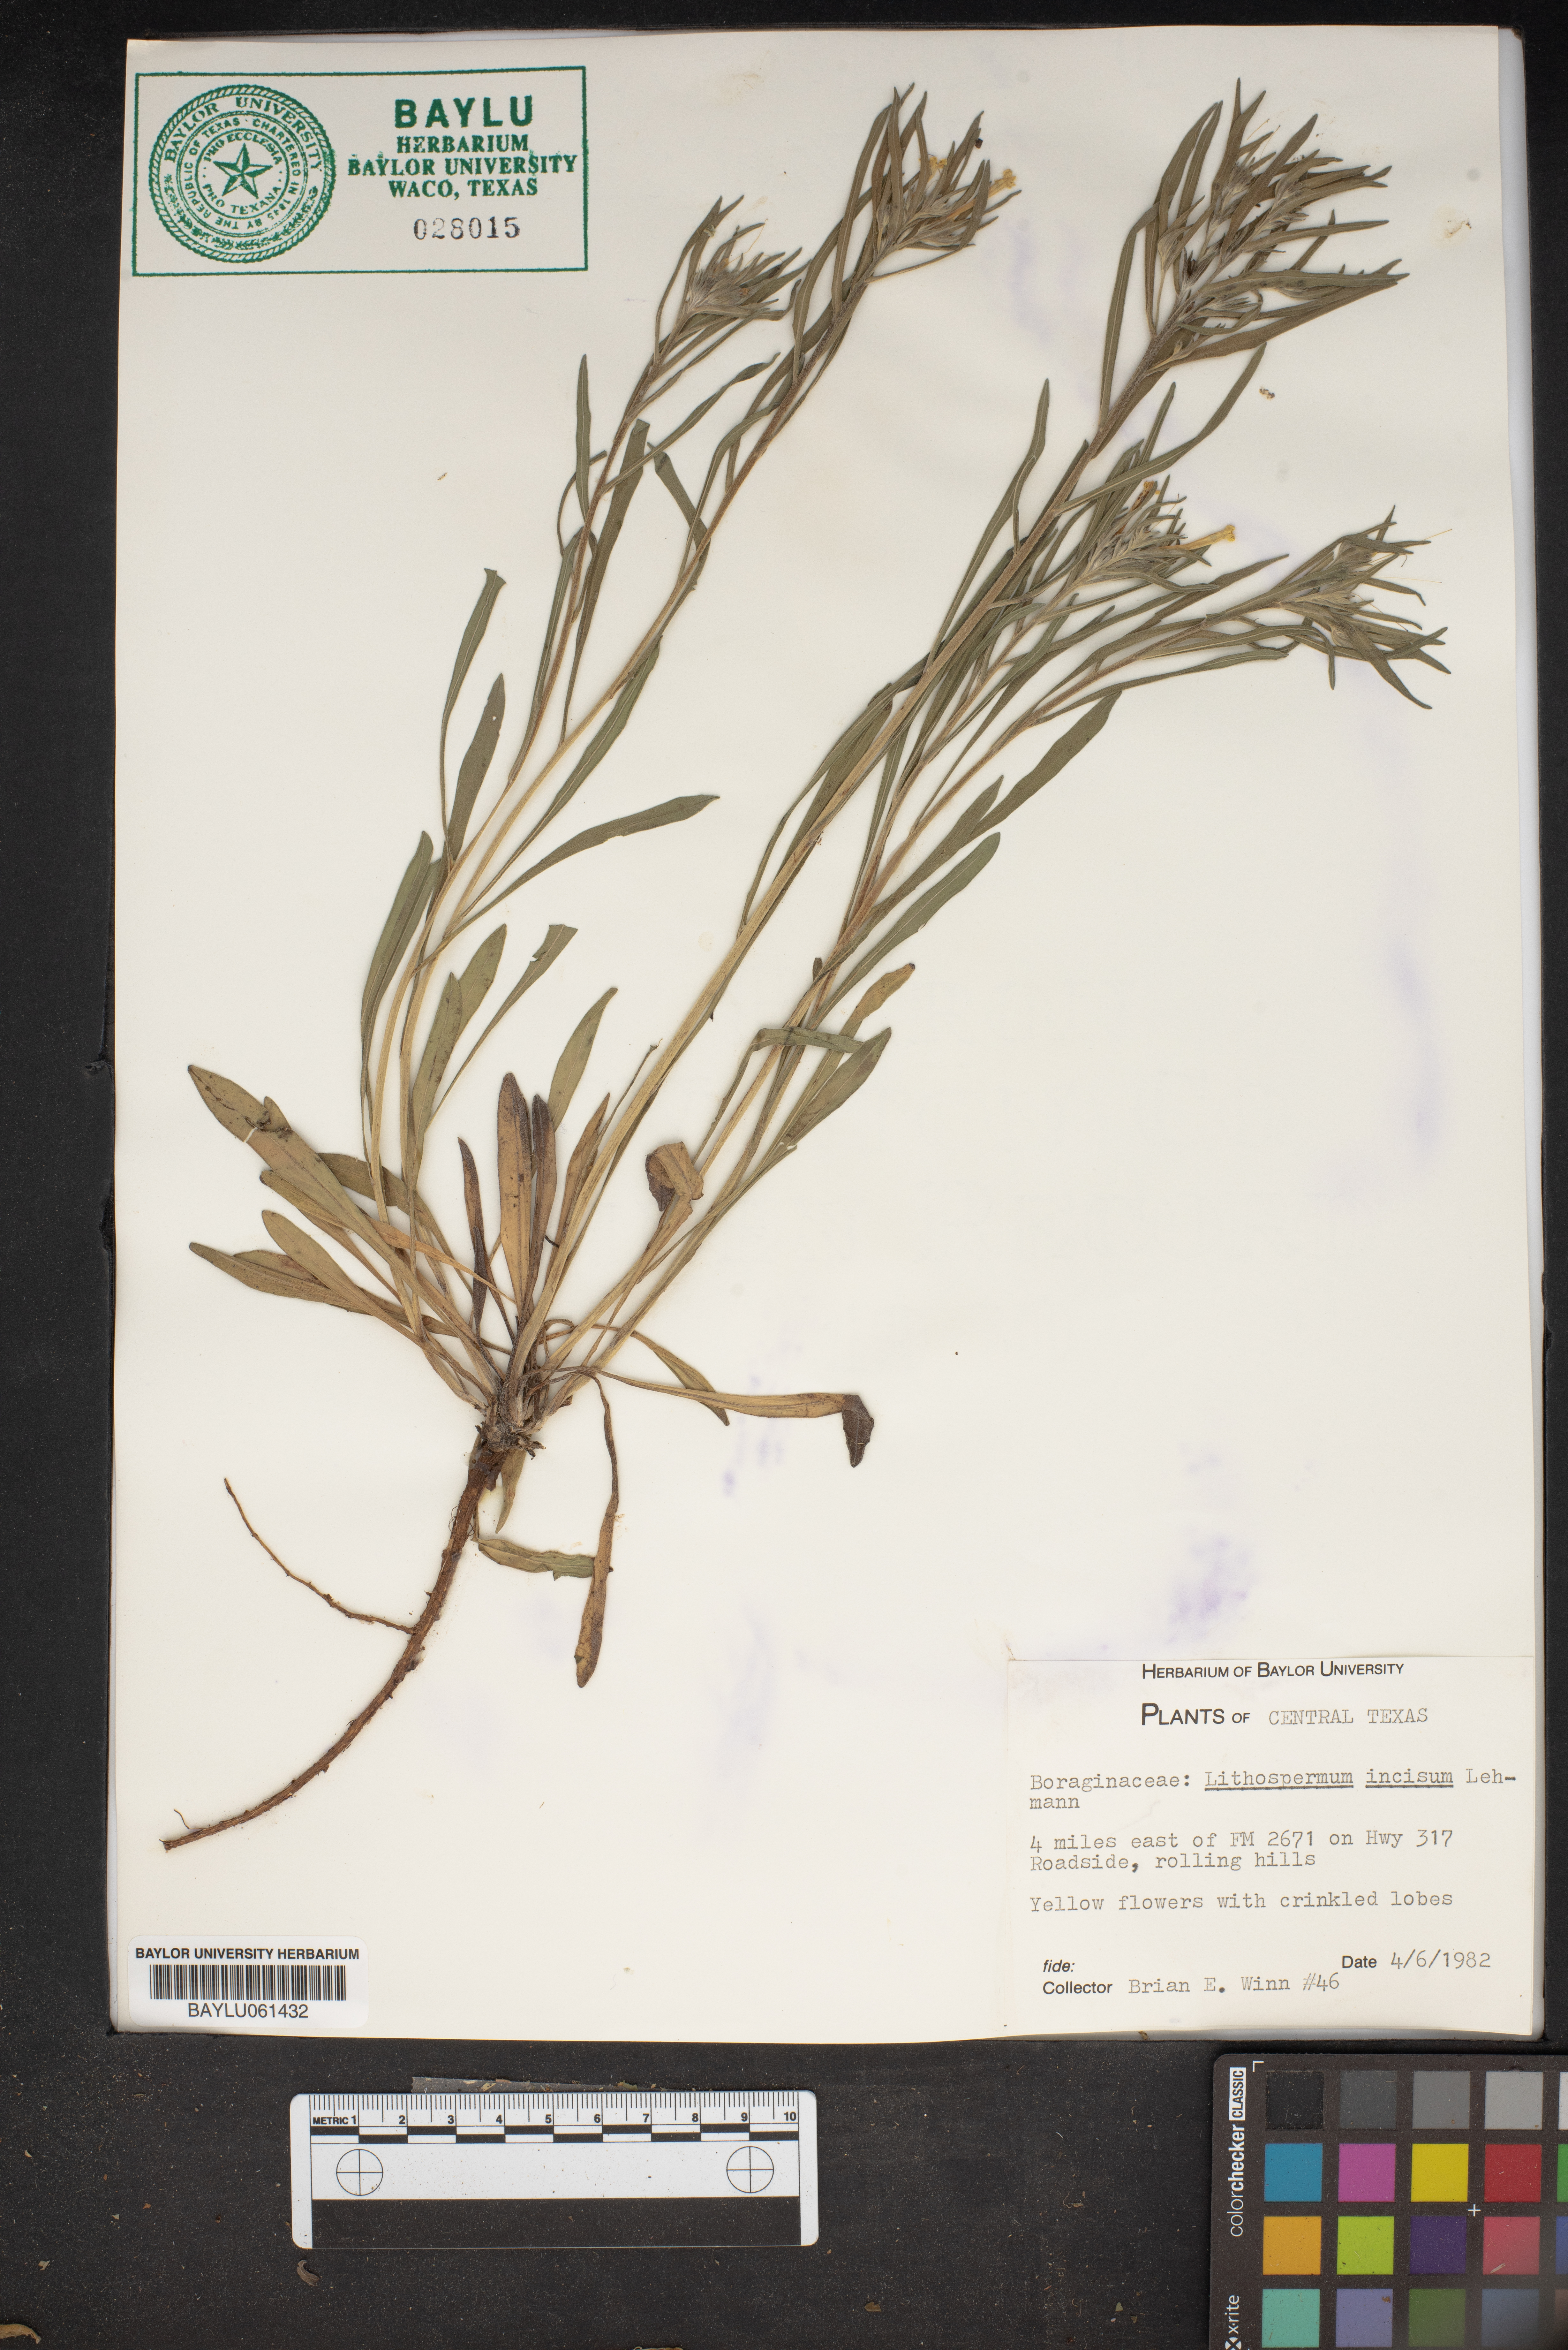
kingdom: Plantae
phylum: Tracheophyta
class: Magnoliopsida
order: Boraginales
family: Boraginaceae
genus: Lithospermum
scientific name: Lithospermum incisum
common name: Fringed gromwell
